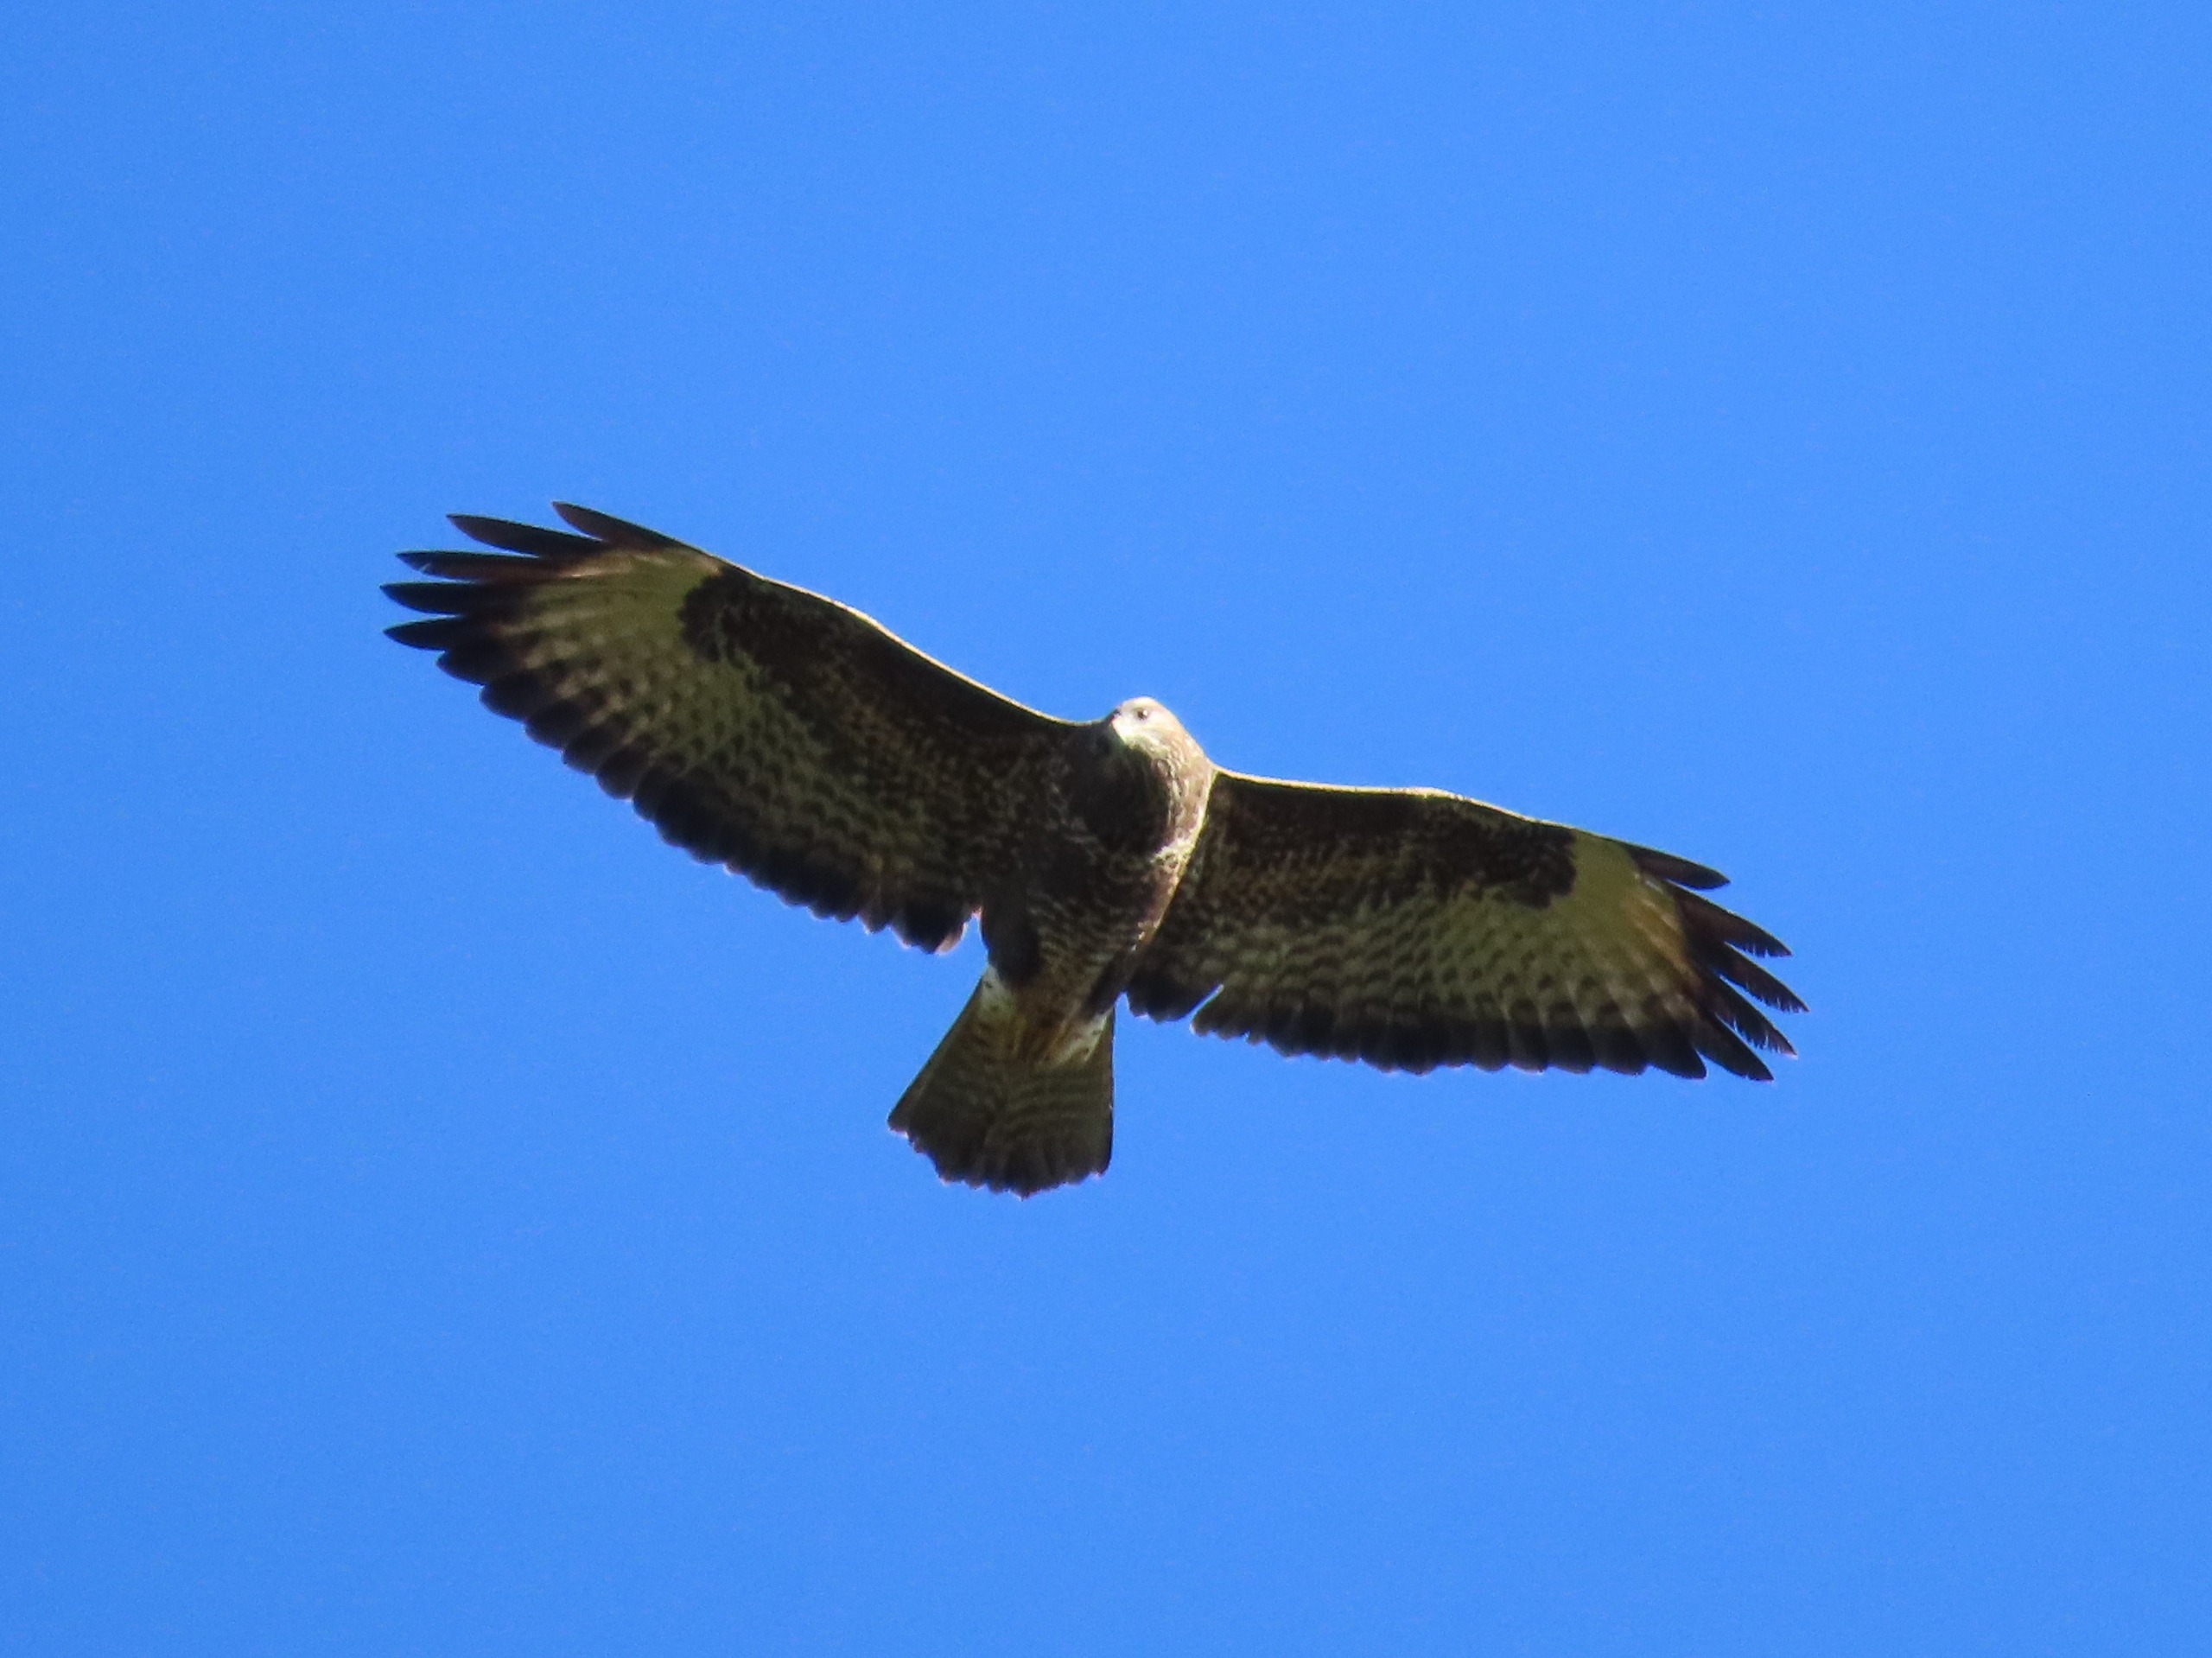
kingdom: Animalia
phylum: Chordata
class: Aves
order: Accipitriformes
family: Accipitridae
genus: Buteo
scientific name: Buteo buteo
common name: Musvåge
